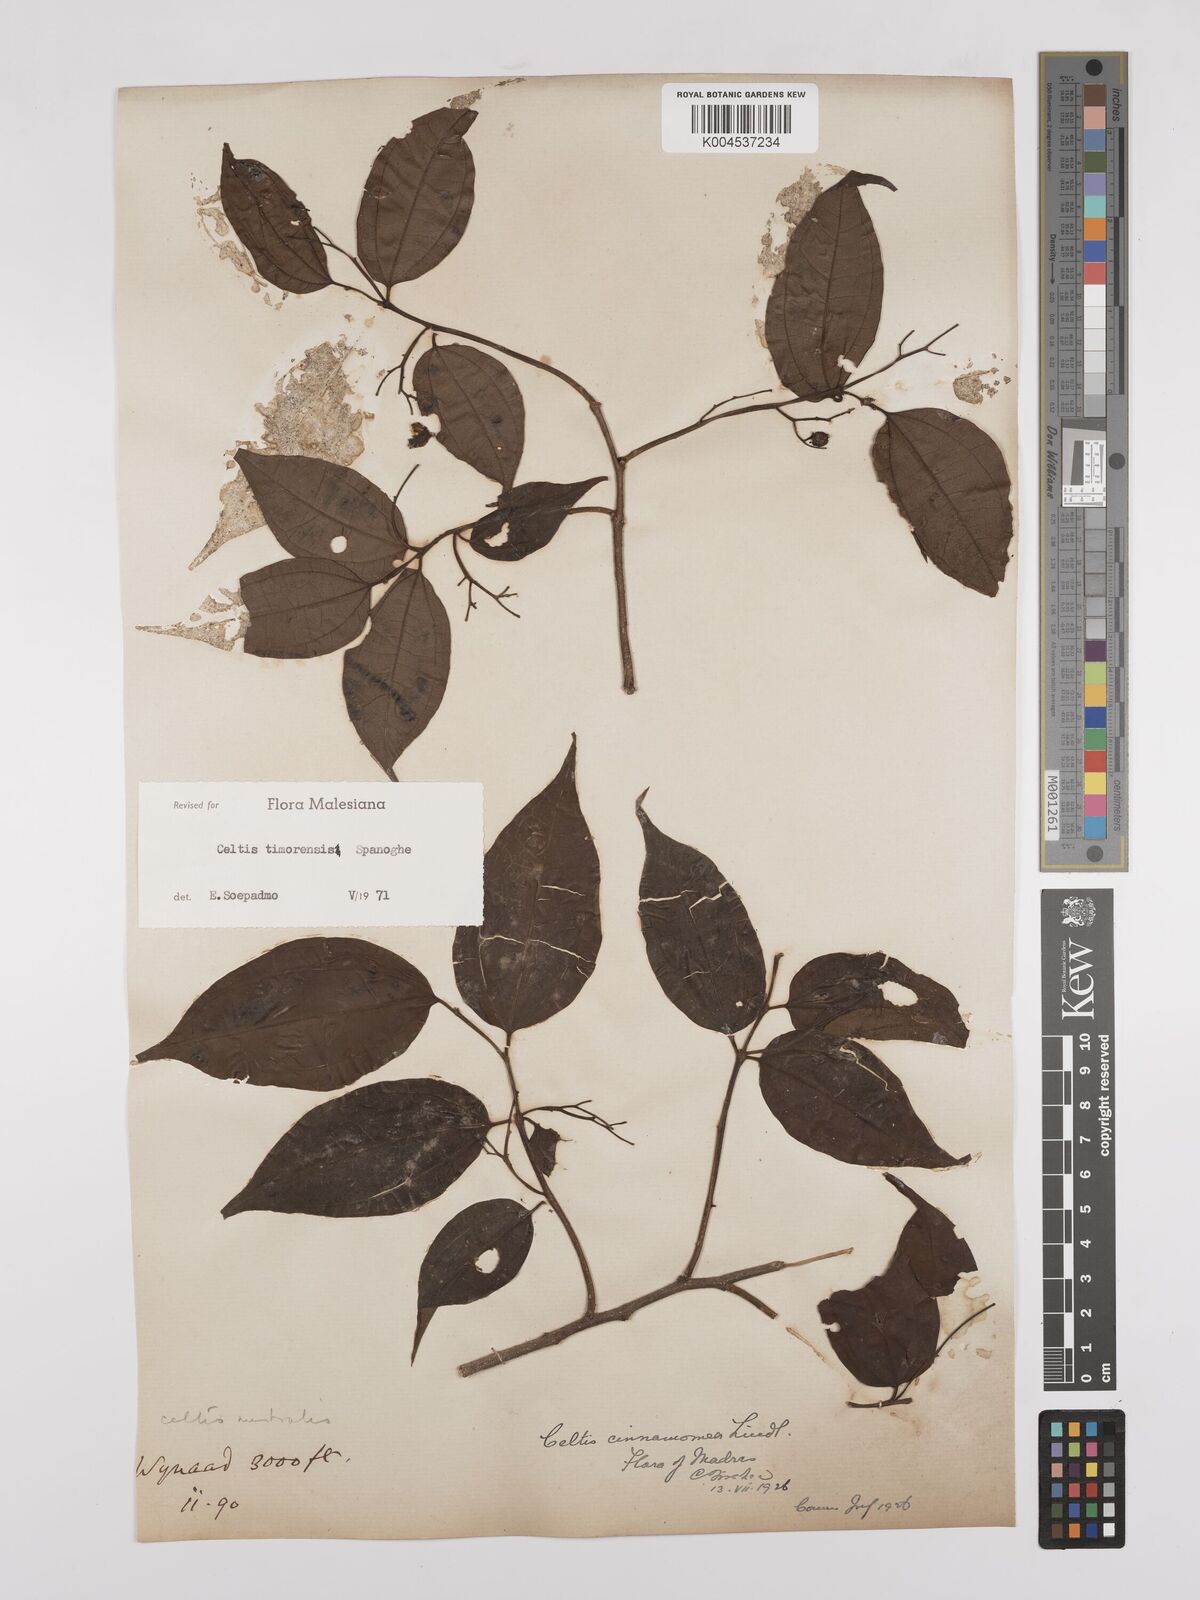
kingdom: Plantae
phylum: Tracheophyta
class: Magnoliopsida
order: Rosales
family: Cannabaceae
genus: Celtis
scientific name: Celtis timorensis
